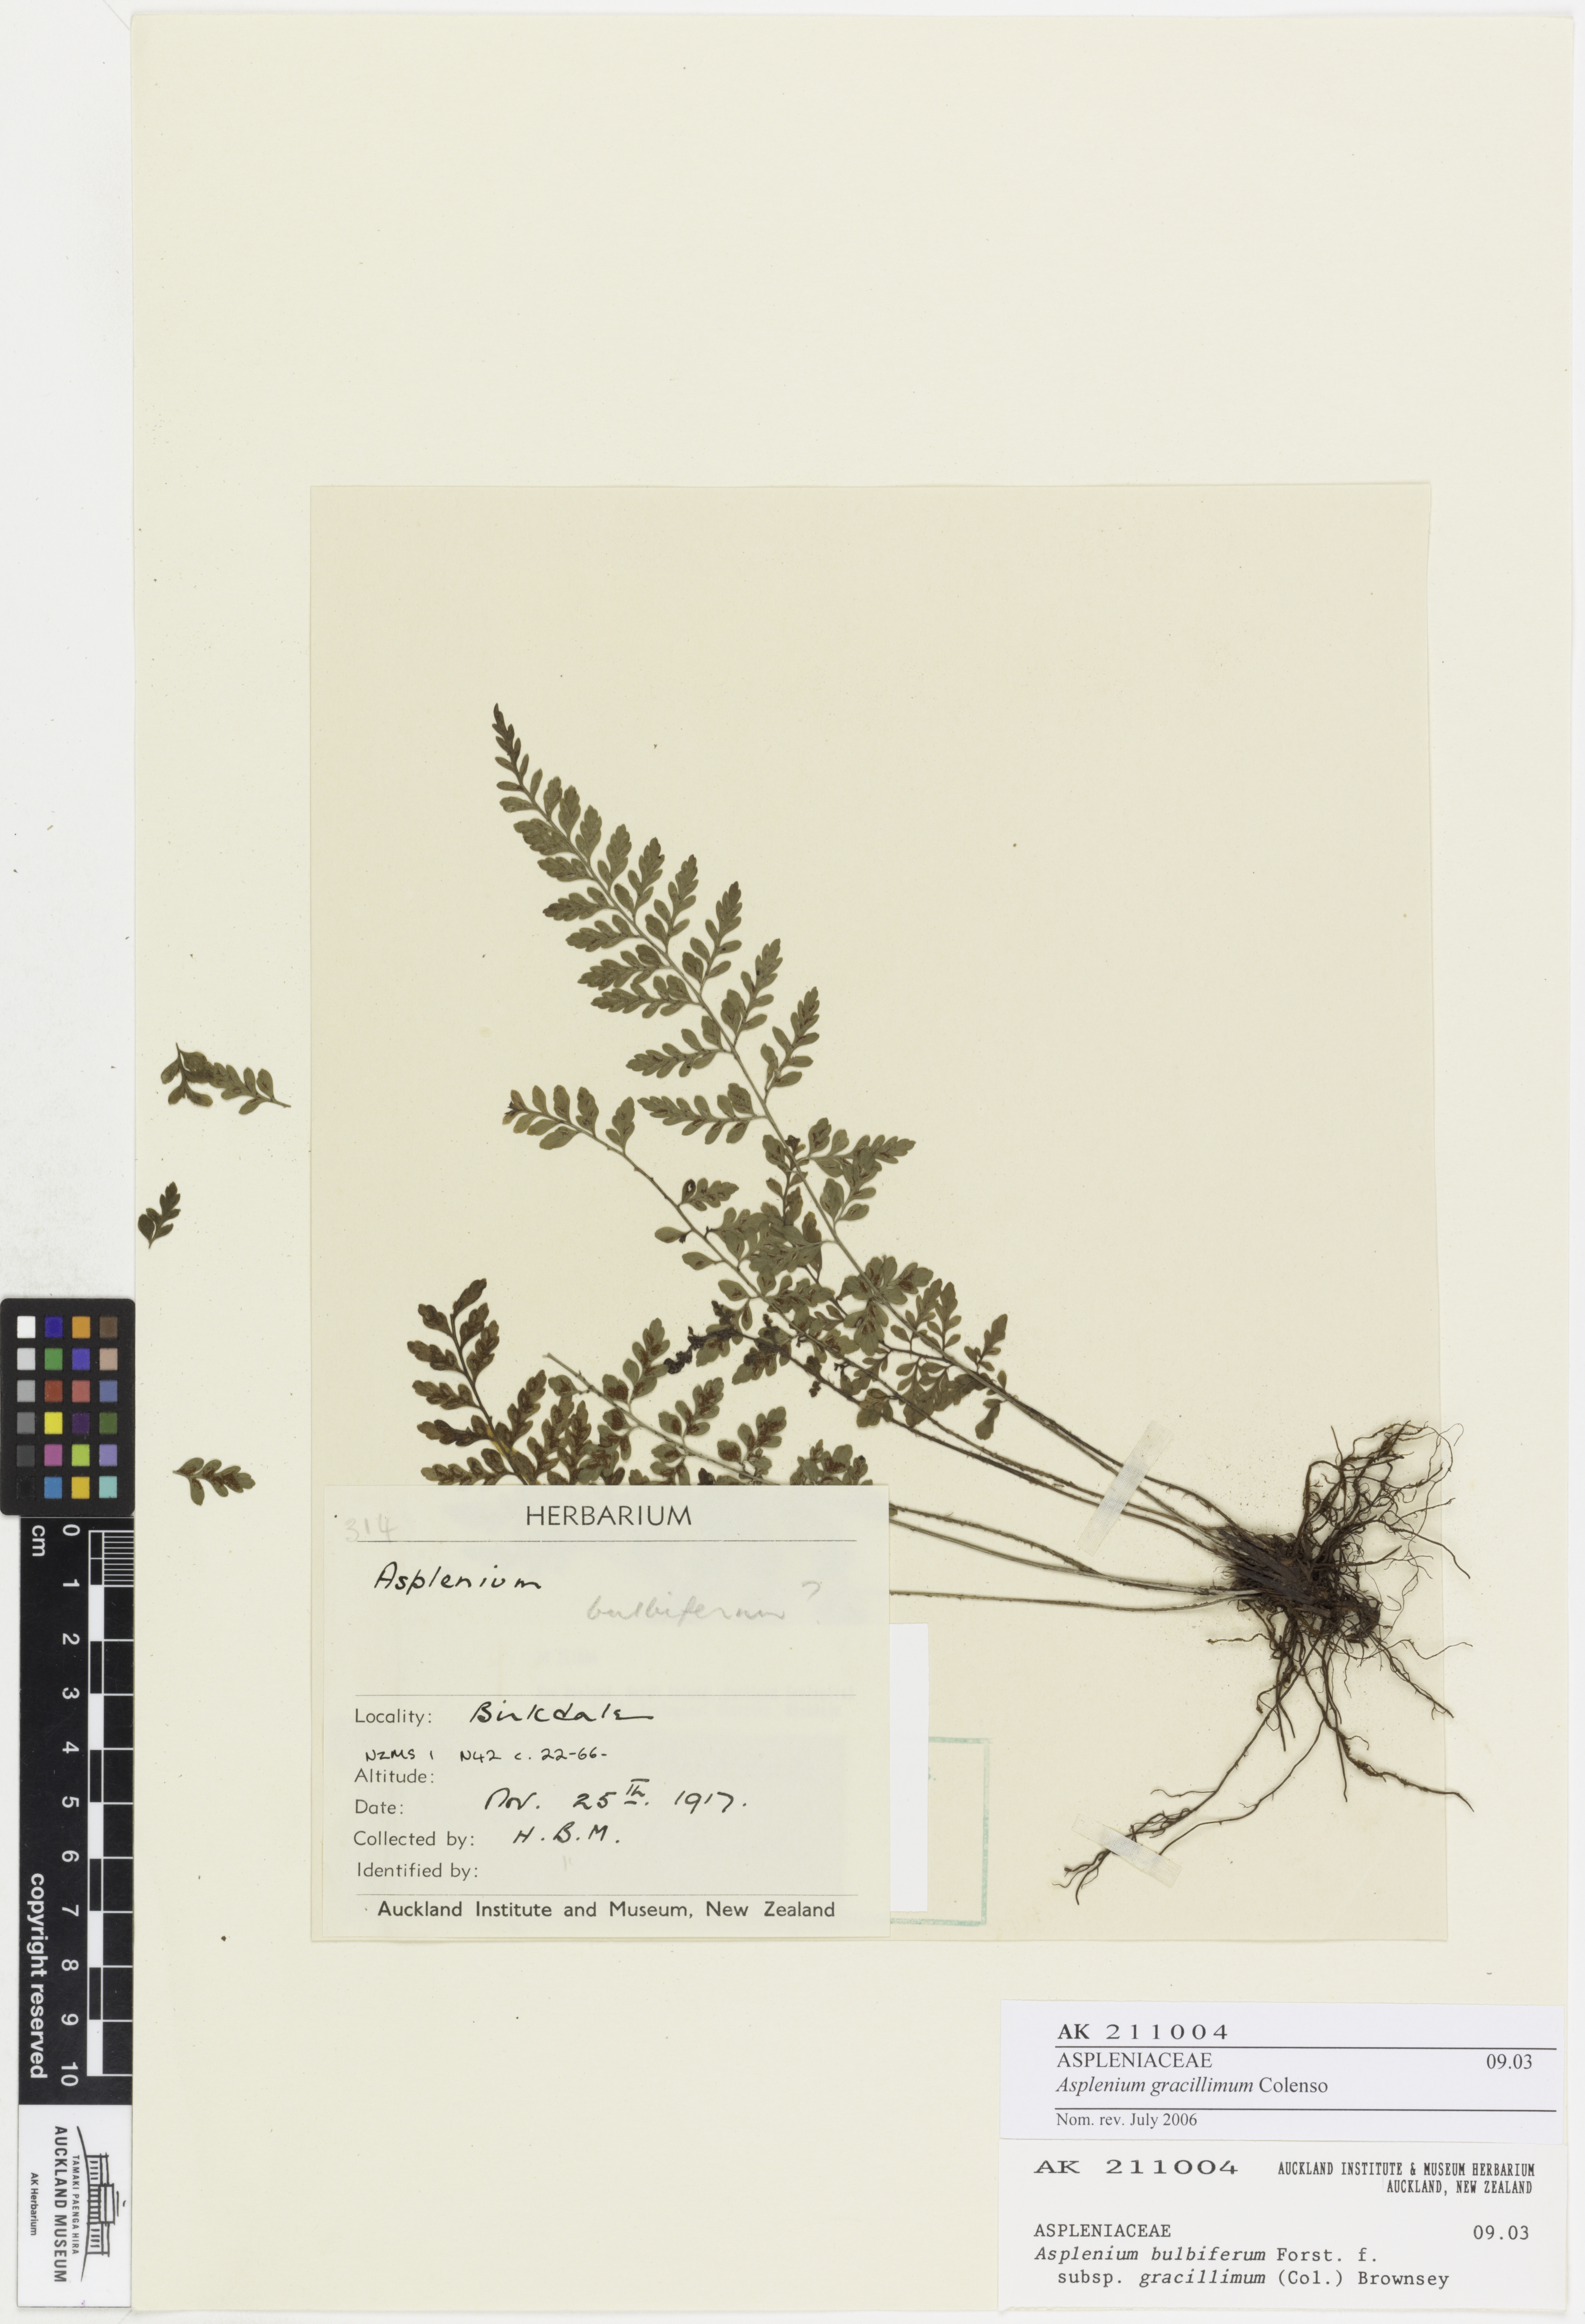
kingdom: Plantae
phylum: Tracheophyta
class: Polypodiopsida
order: Polypodiales
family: Aspleniaceae
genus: Asplenium
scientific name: Asplenium bulbiferum
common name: Mother fern
